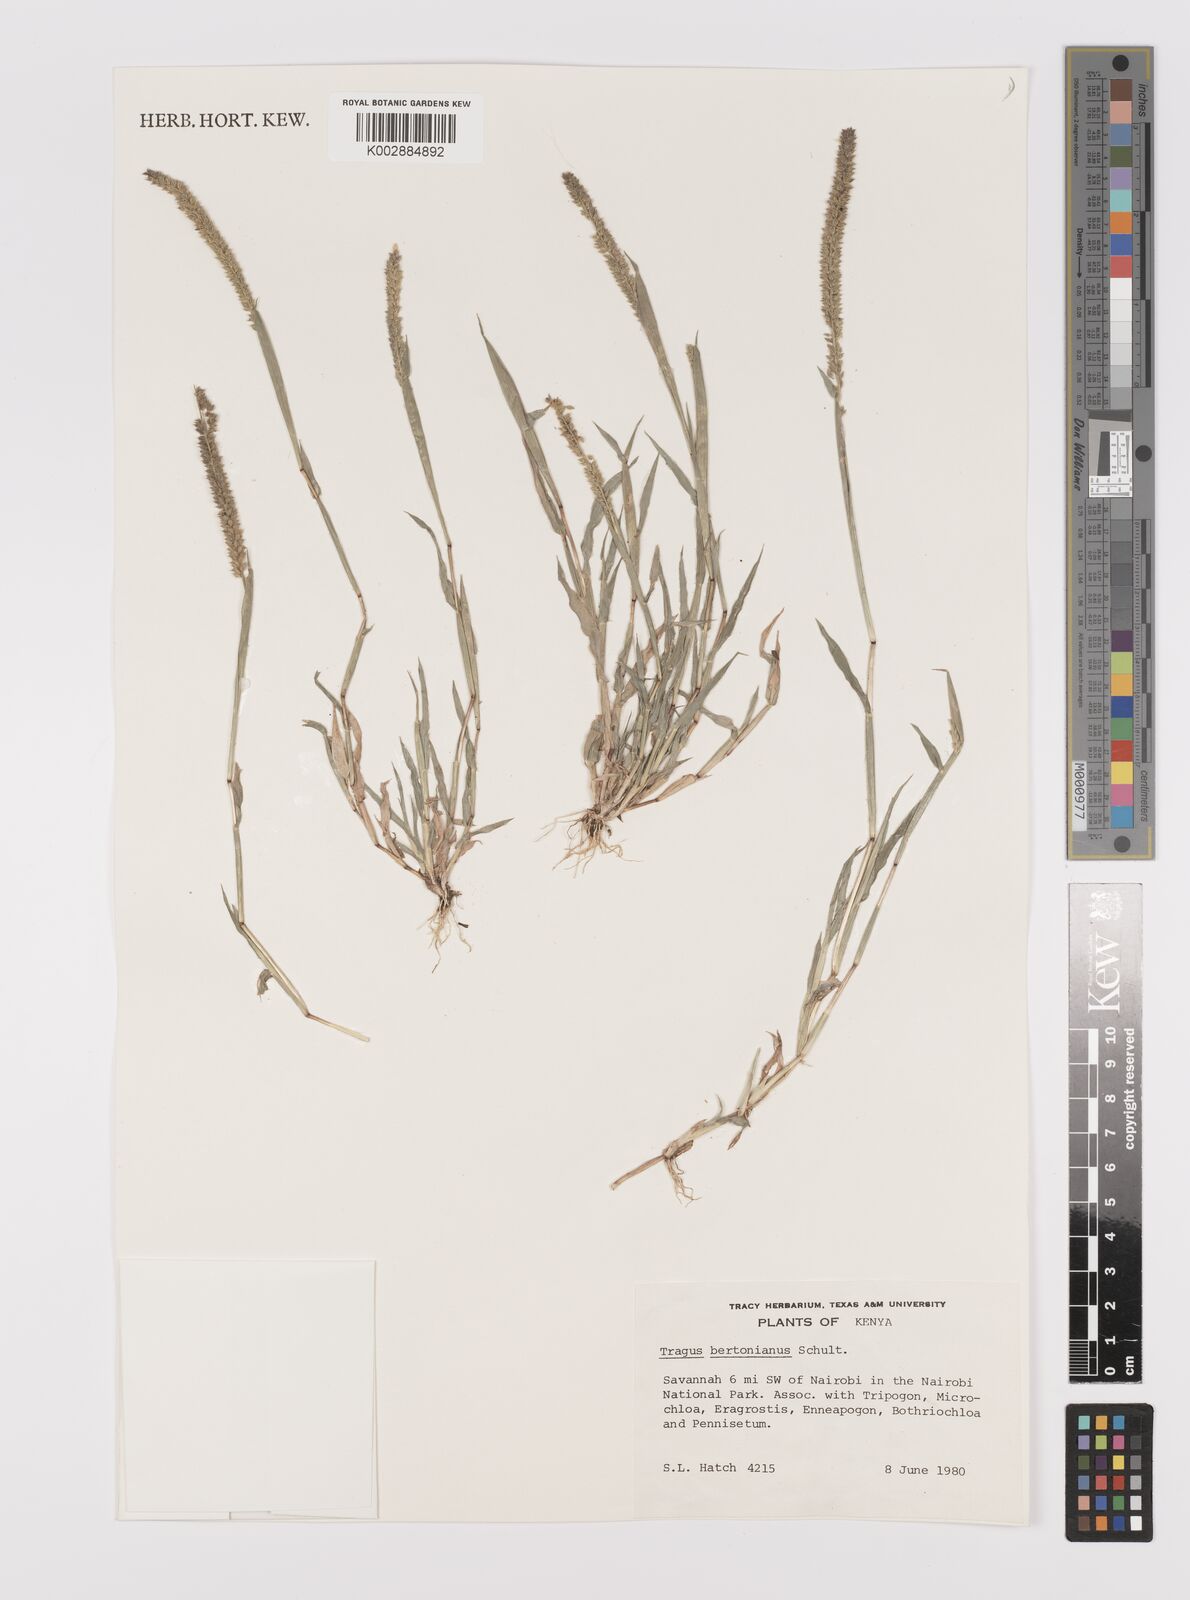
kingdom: Plantae
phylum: Tracheophyta
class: Liliopsida
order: Poales
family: Poaceae
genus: Tragus
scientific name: Tragus berteronianus
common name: African bur-grass
